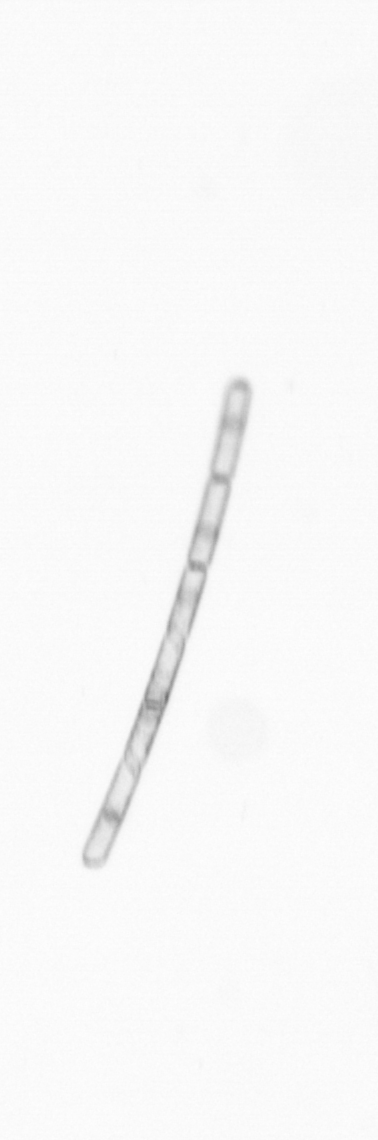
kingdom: Chromista
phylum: Ochrophyta
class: Bacillariophyceae
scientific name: Bacillariophyceae
